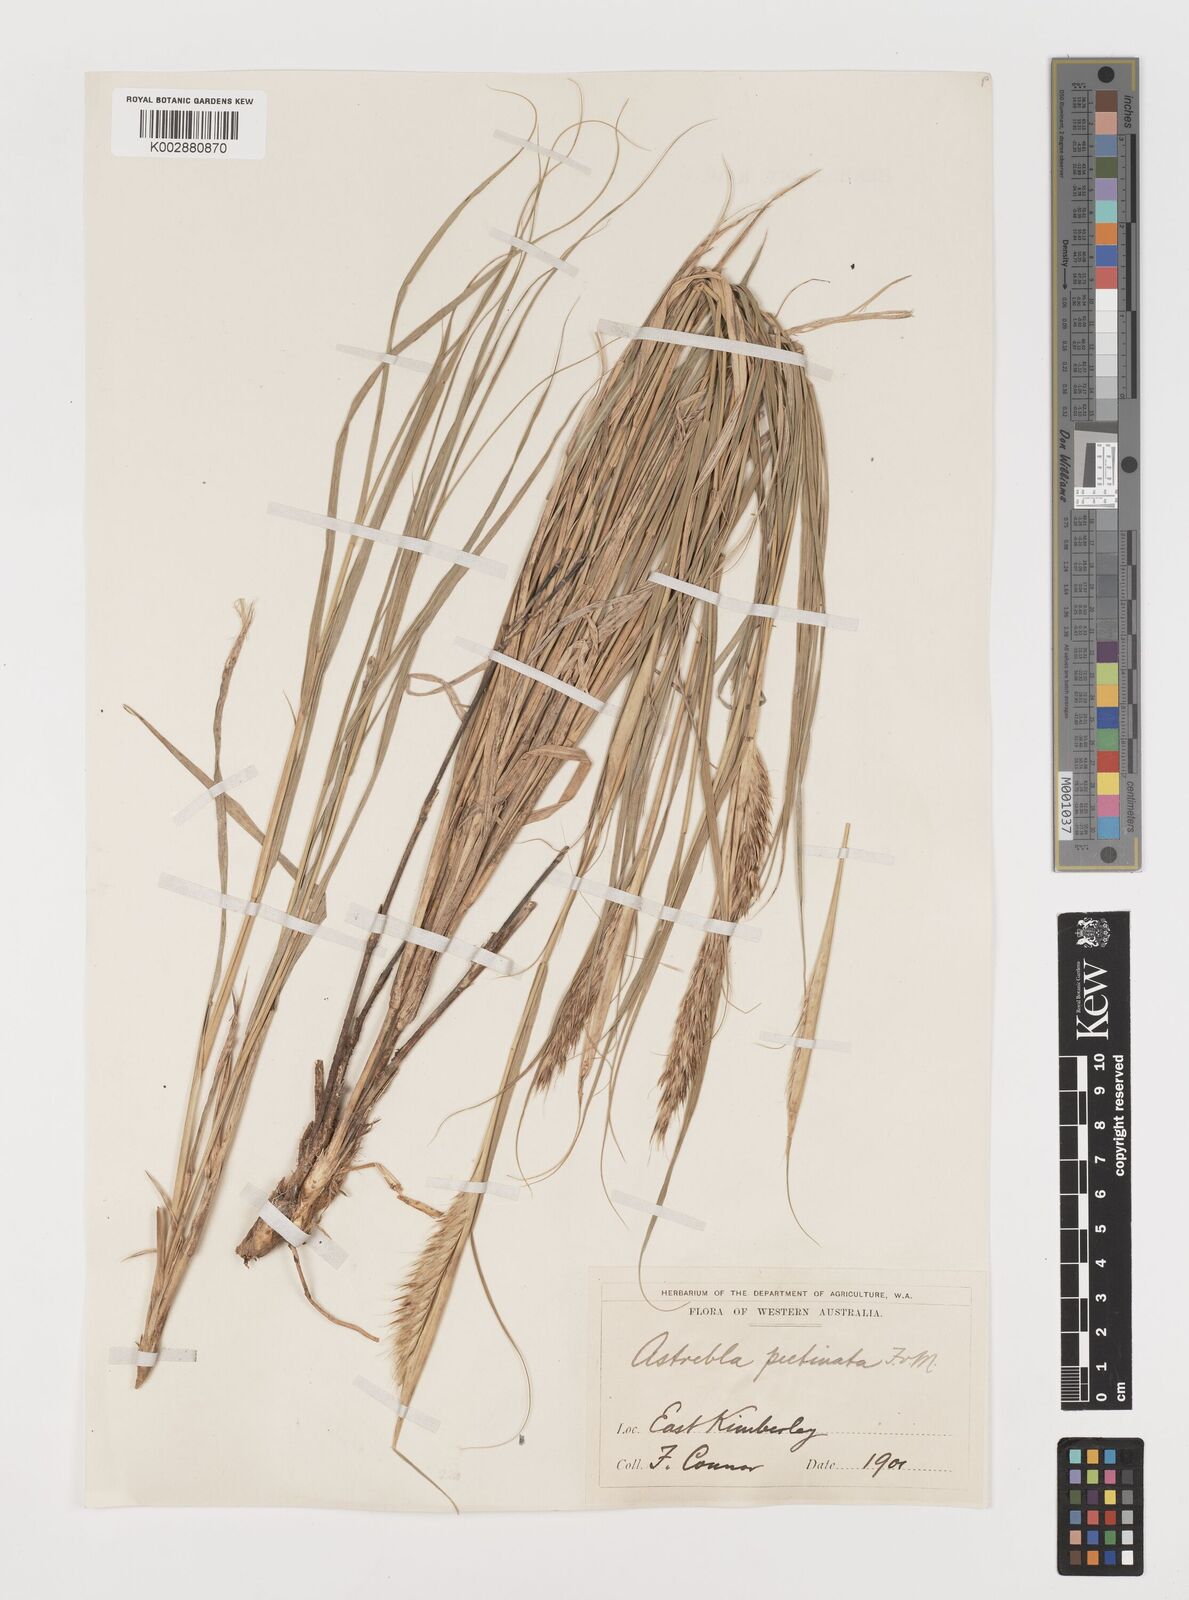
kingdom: Plantae
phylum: Tracheophyta
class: Liliopsida
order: Poales
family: Poaceae
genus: Astrebla
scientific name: Astrebla pectinata
